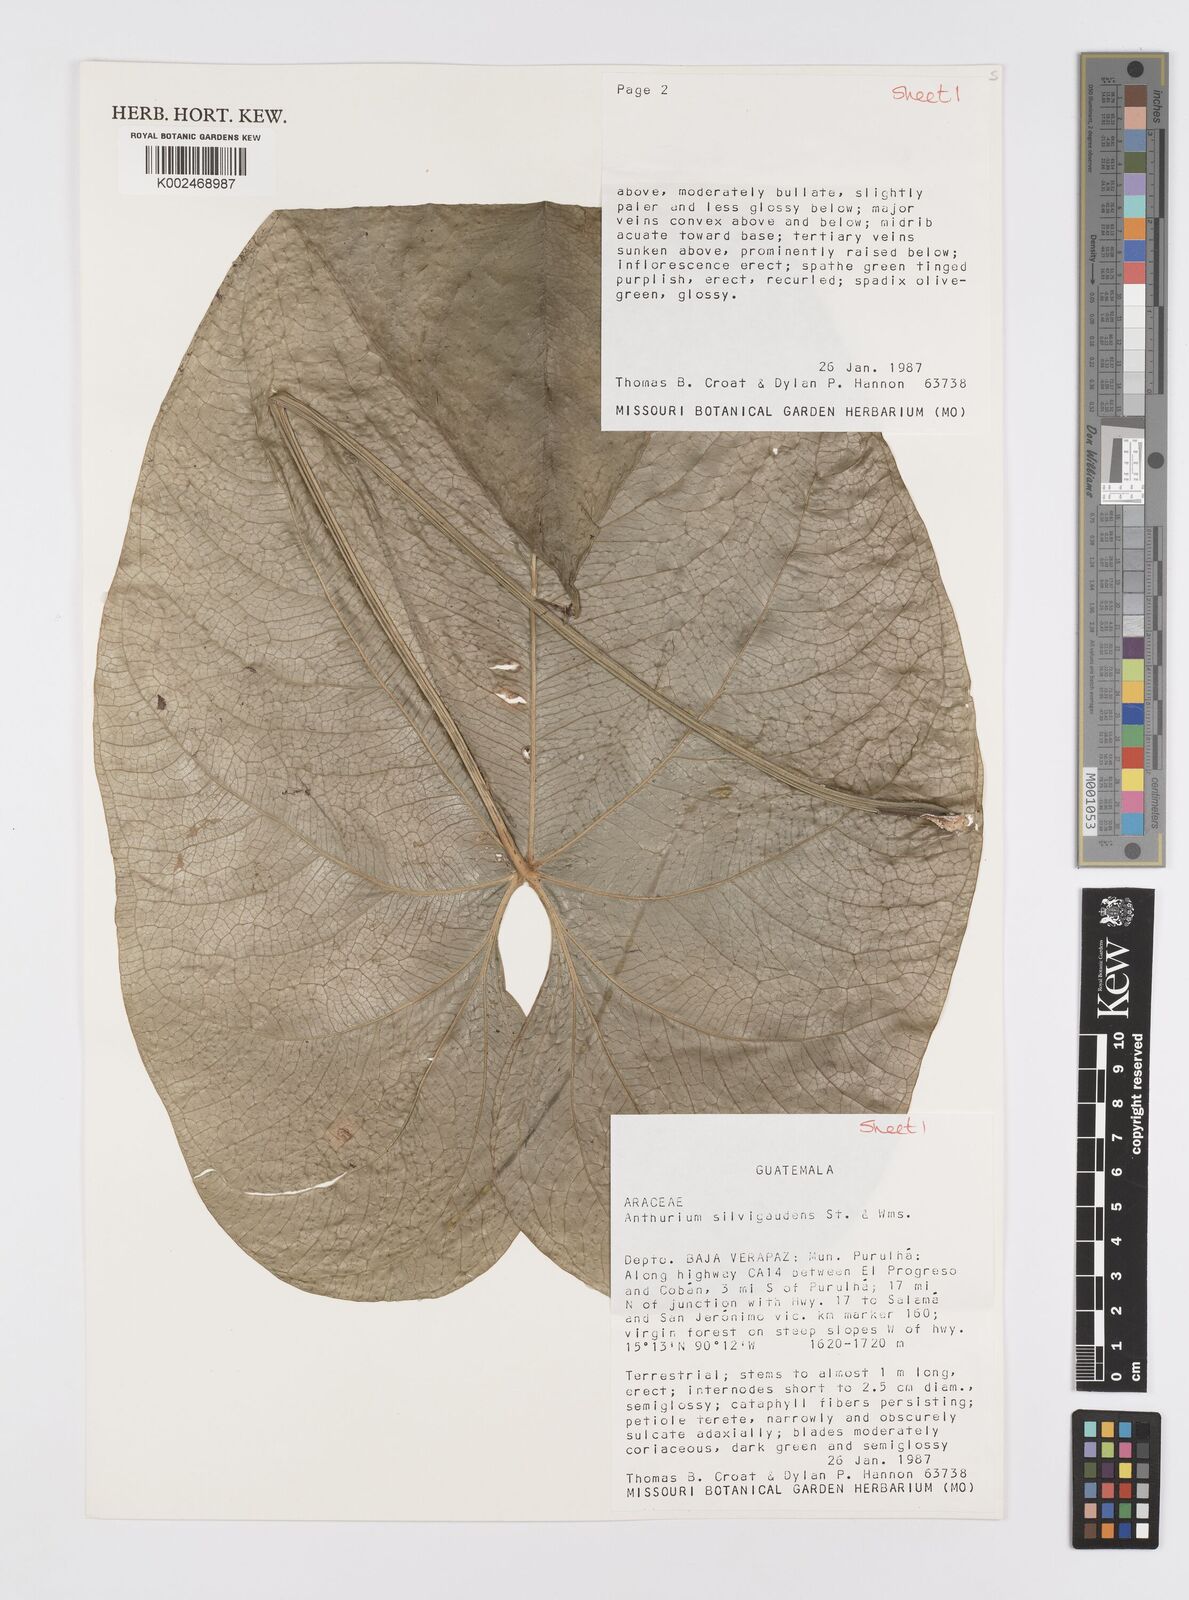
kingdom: Plantae
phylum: Tracheophyta
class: Liliopsida
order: Alismatales
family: Araceae
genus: Anthurium
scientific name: Anthurium silvigaudens
